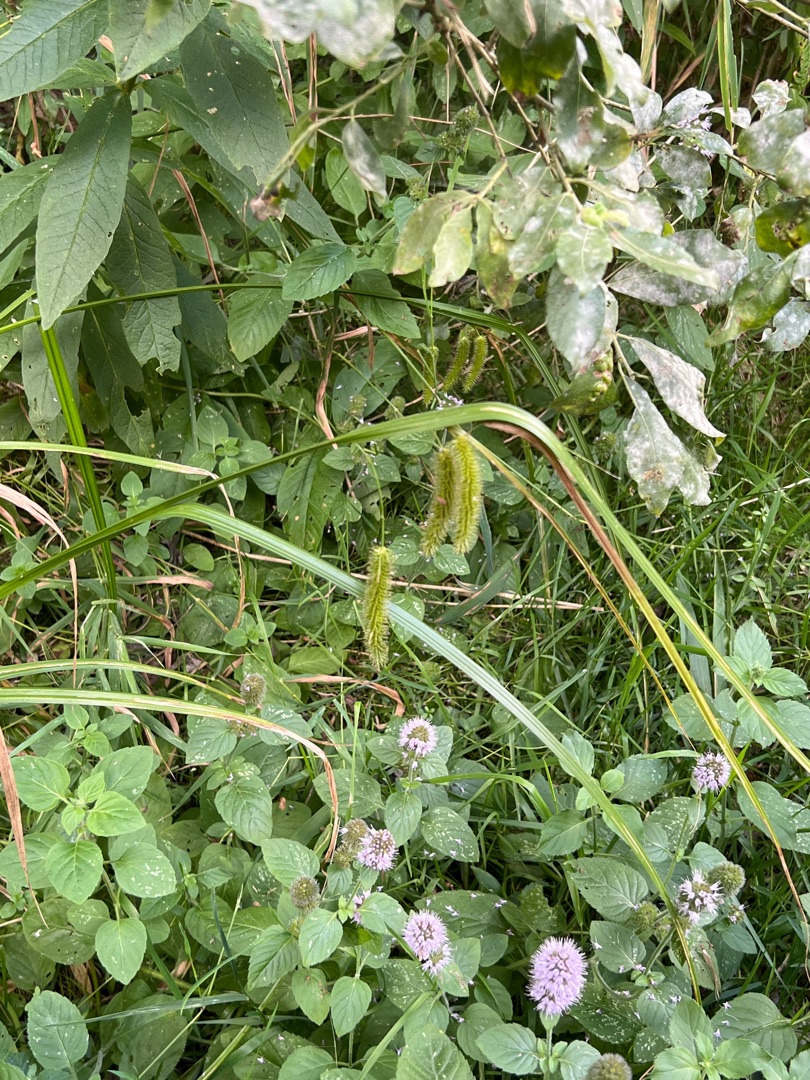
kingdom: Plantae
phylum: Tracheophyta
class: Liliopsida
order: Poales
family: Cyperaceae
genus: Carex
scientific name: Carex pseudocyperus
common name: Knippe-star
